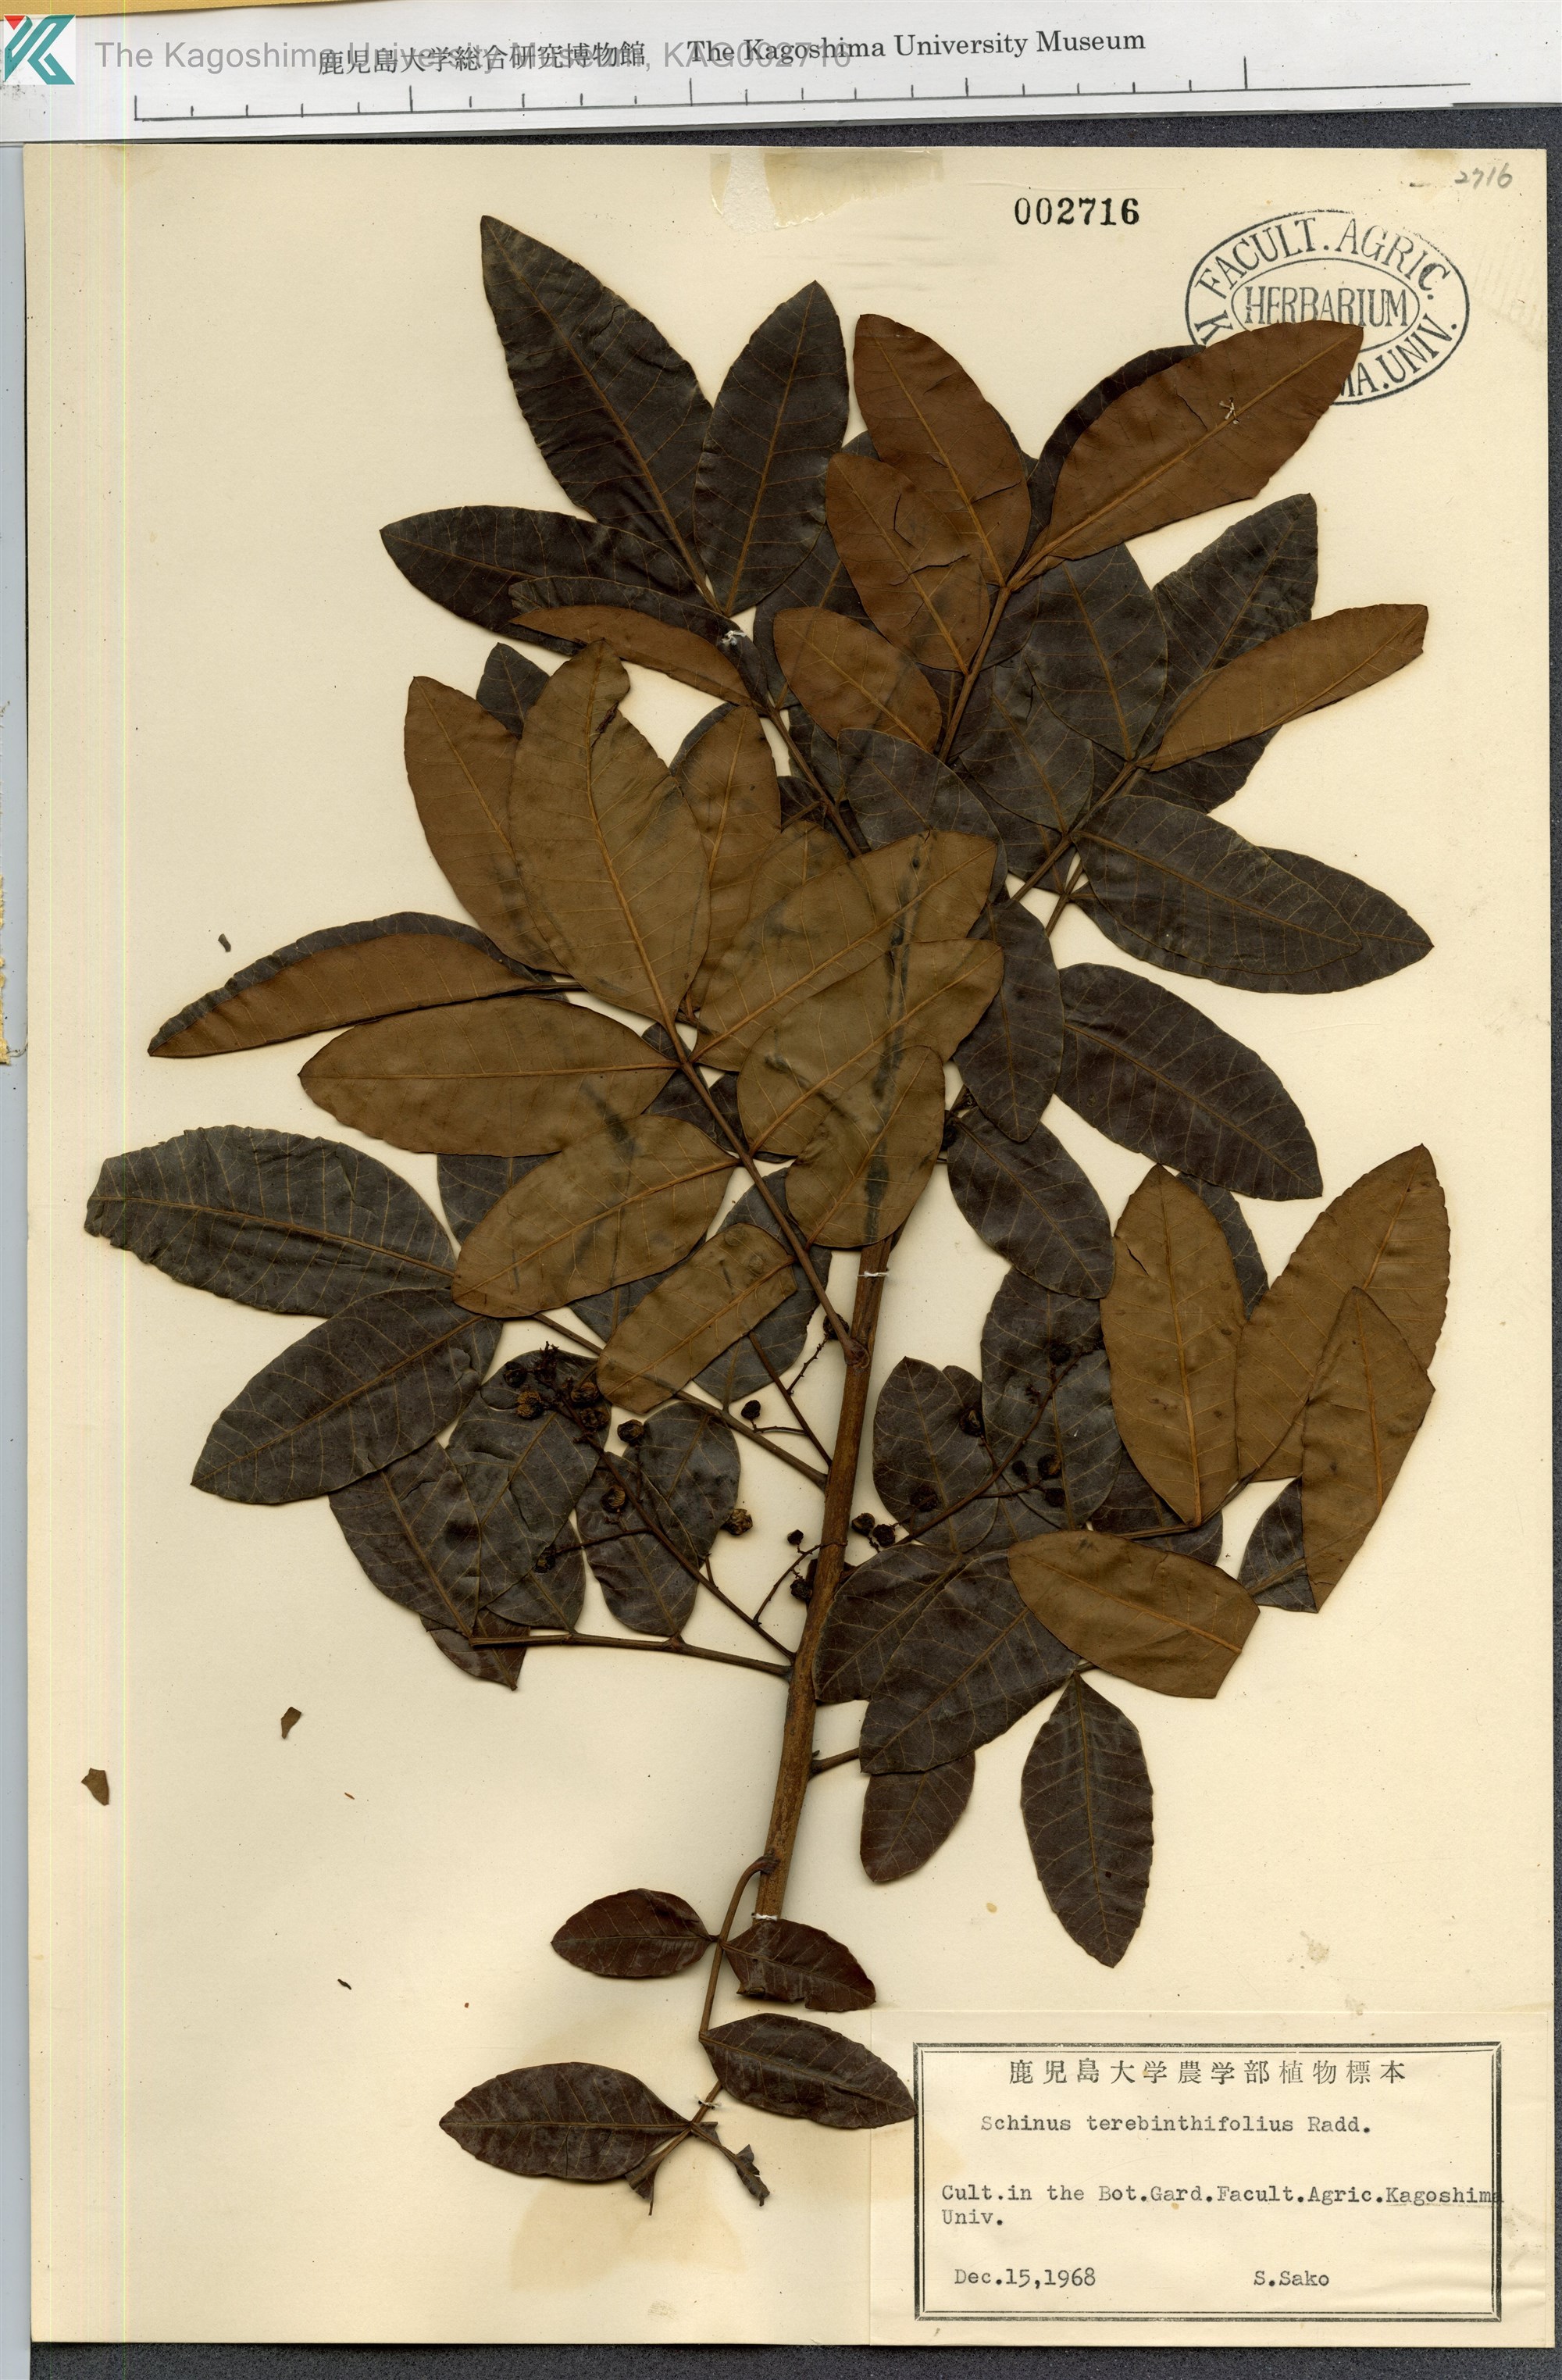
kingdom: Plantae
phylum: Tracheophyta
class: Magnoliopsida
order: Sapindales
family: Anacardiaceae
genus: Schinus
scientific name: Schinus terebinthifolia
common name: Brazilian peppertree
